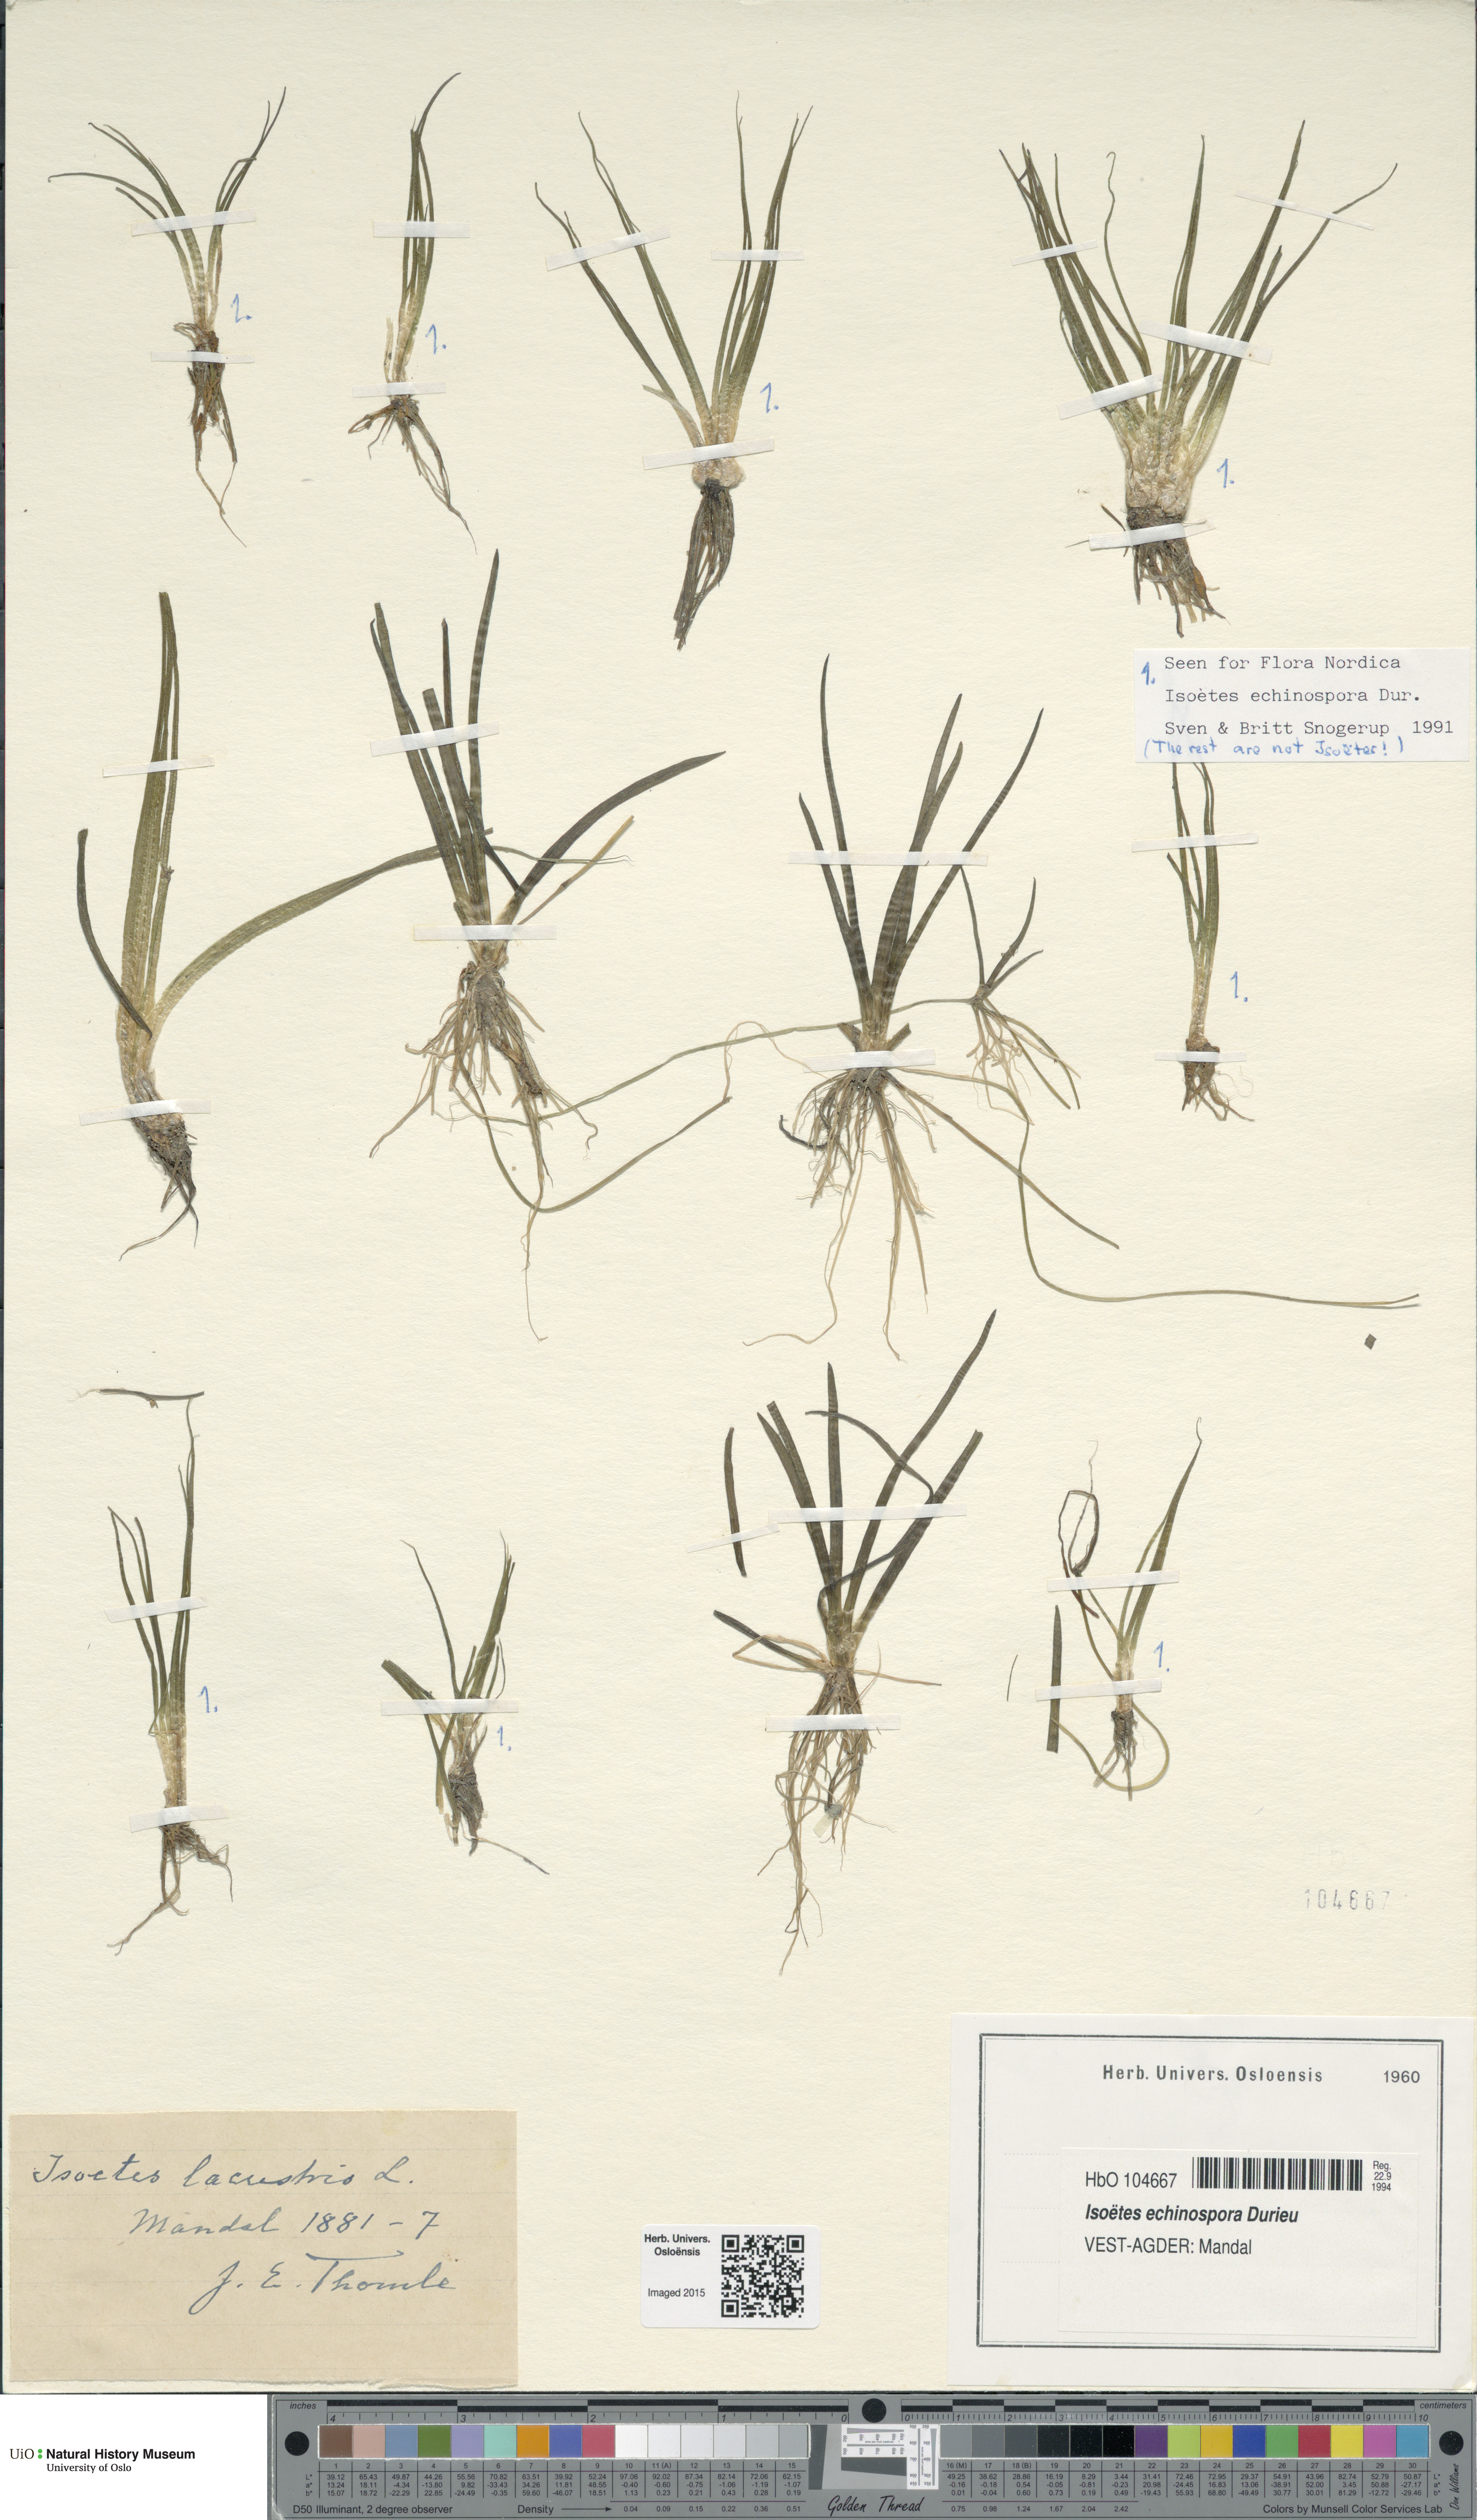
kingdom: Plantae
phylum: Tracheophyta
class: Lycopodiopsida
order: Isoetales
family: Isoetaceae
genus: Isoetes
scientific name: Isoetes echinospora
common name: Spring quillwort
